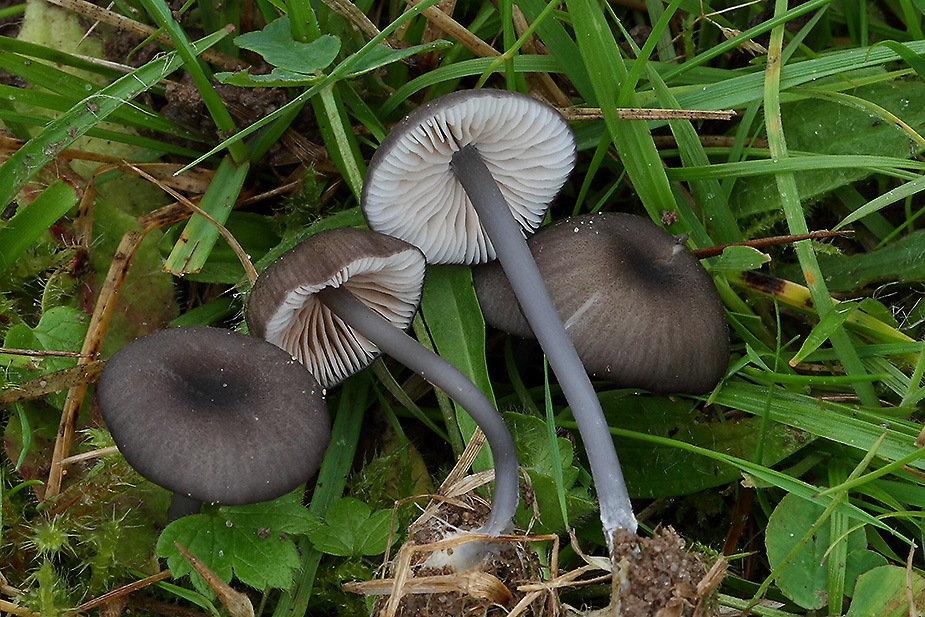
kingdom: Fungi
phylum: Basidiomycota
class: Agaricomycetes
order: Agaricales
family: Entolomataceae
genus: Entoloma
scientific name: Entoloma allospermum
